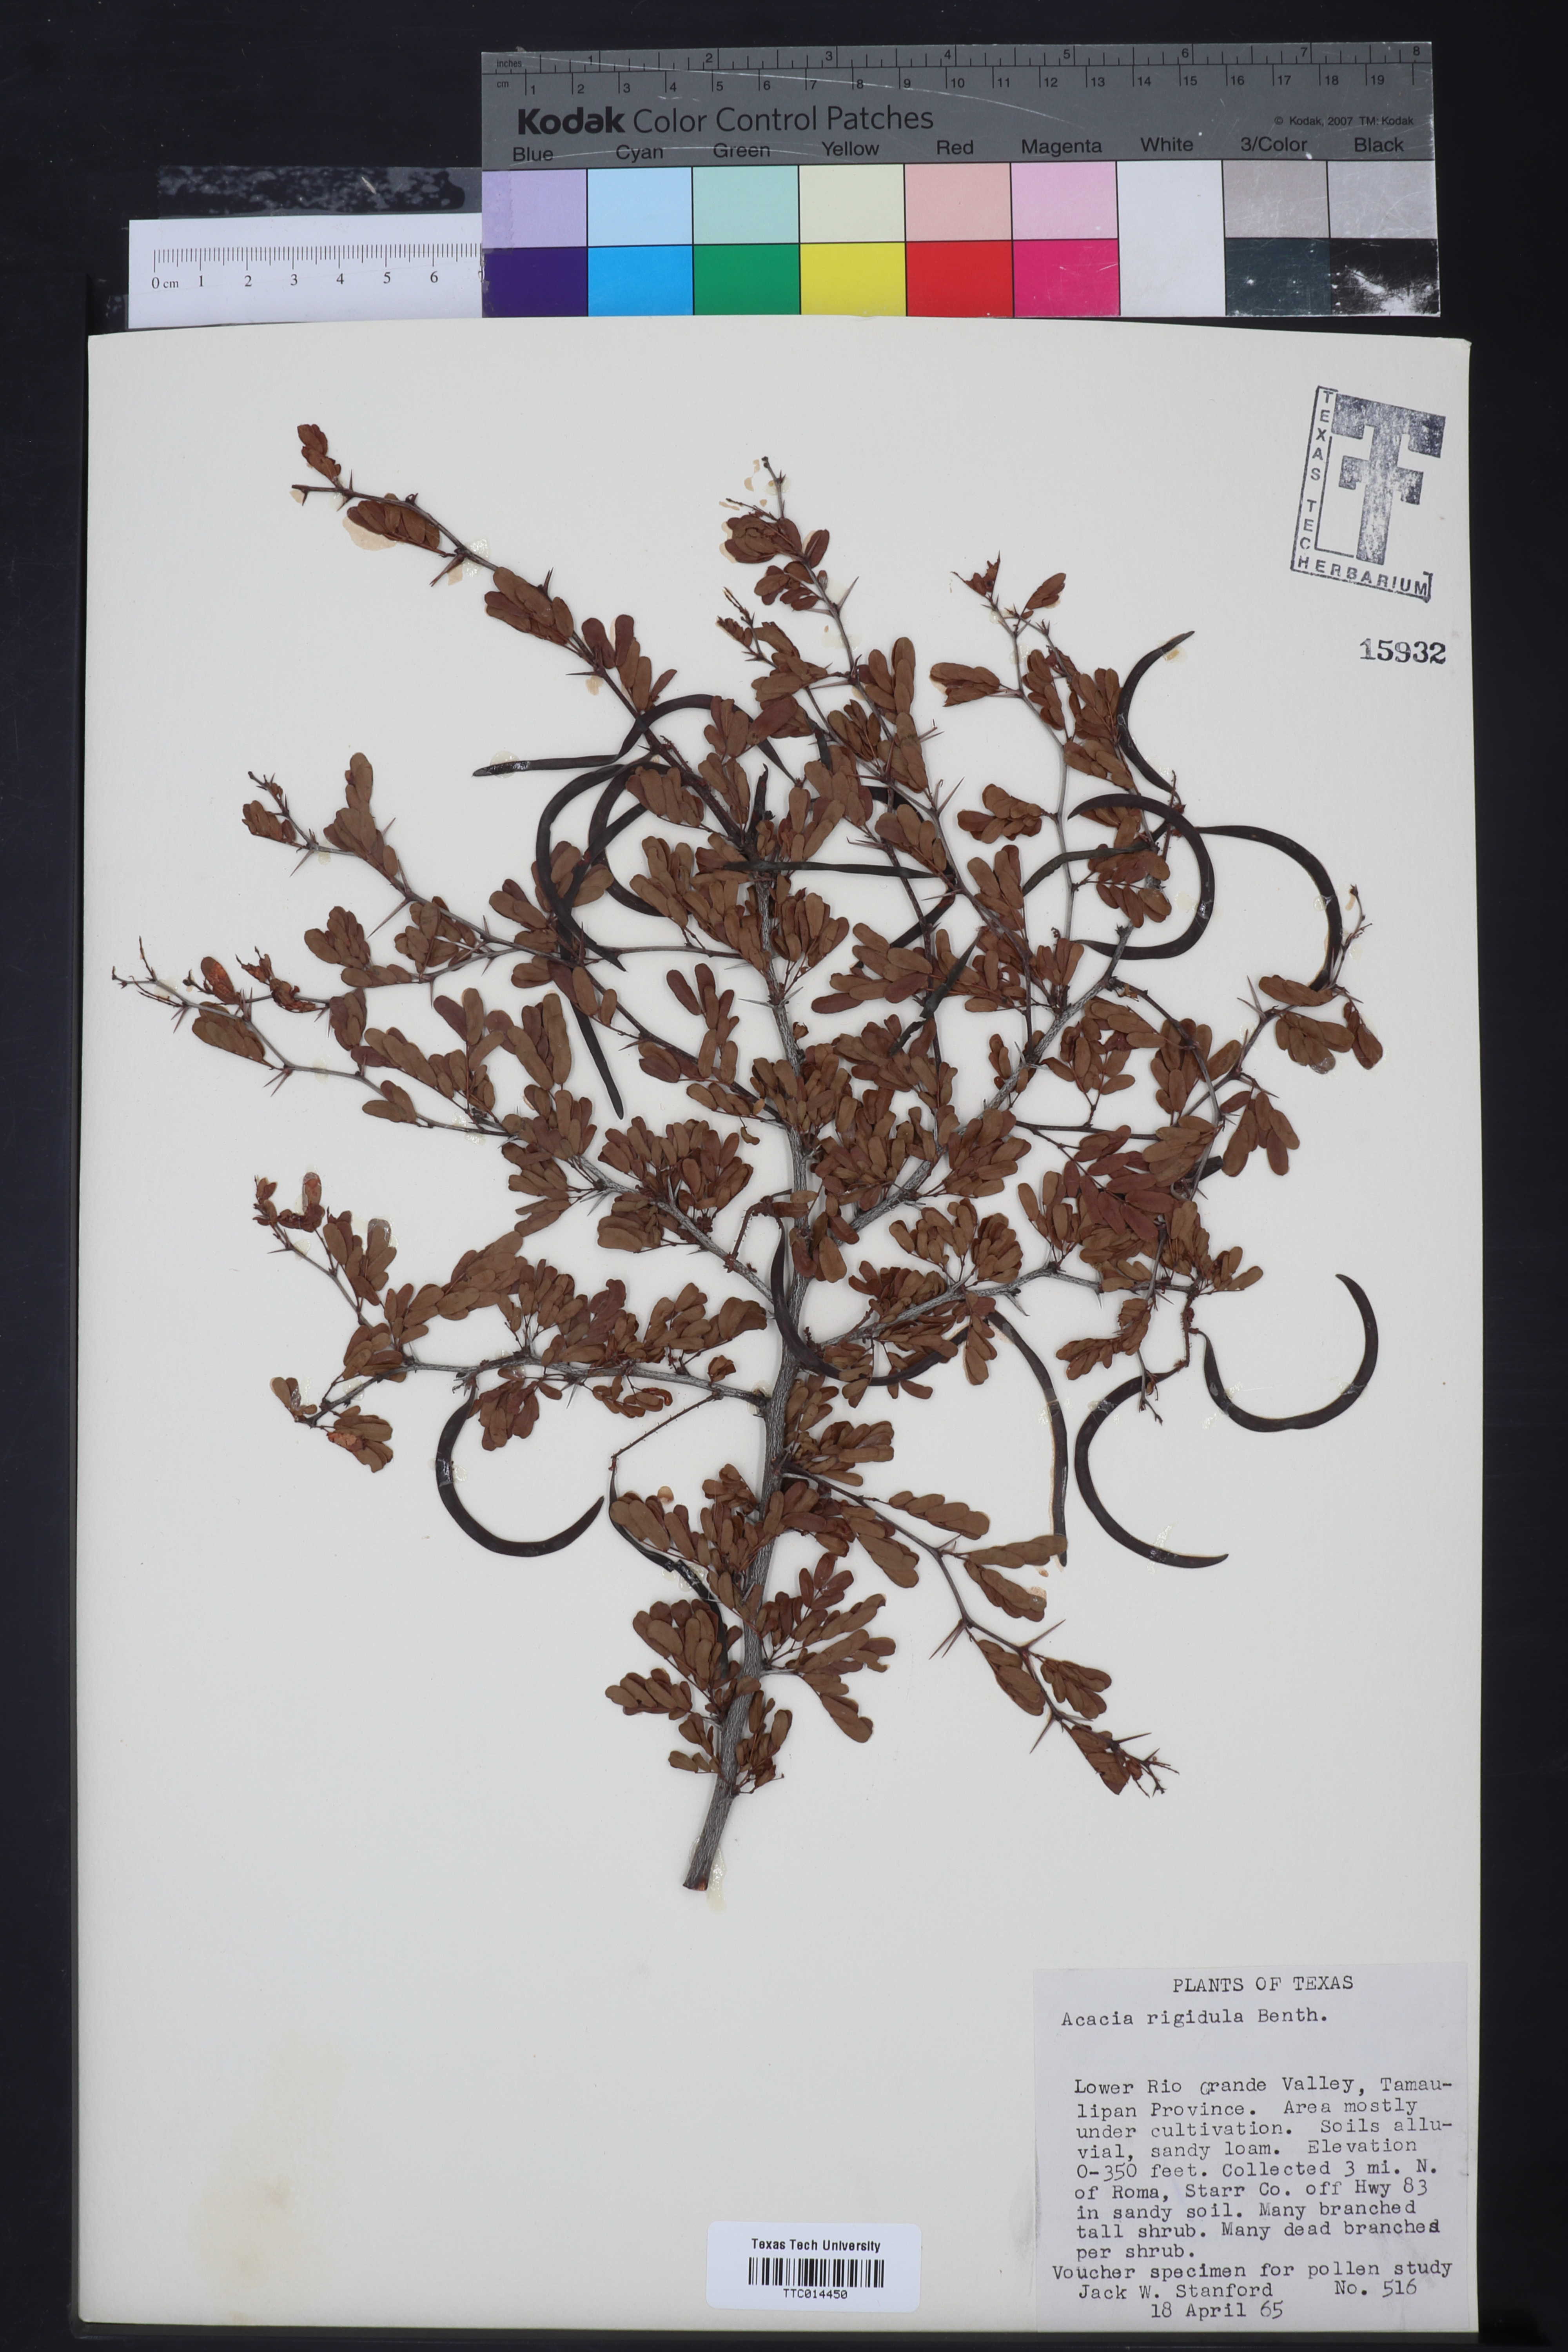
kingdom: Plantae
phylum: Tracheophyta
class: Magnoliopsida
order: Fabales
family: Fabaceae
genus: Vachellia
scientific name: Vachellia rigidula
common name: Blackbrush
